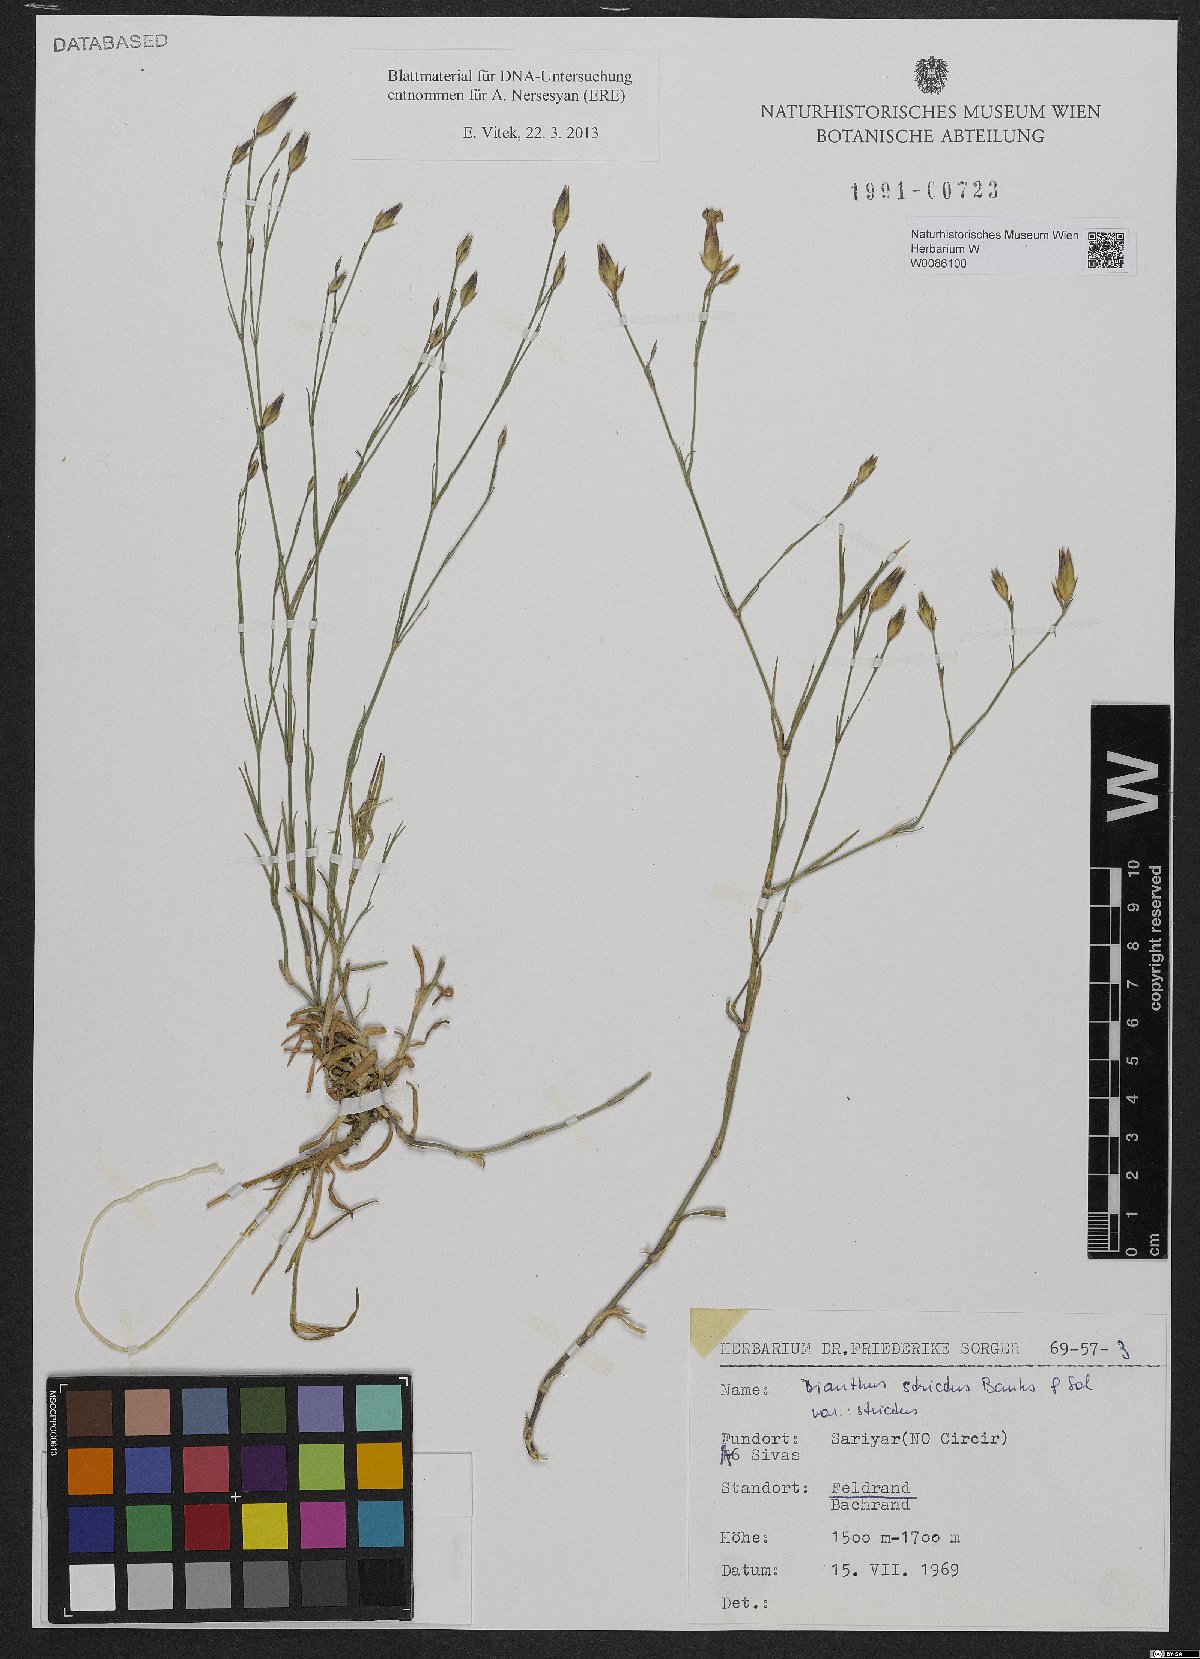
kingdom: Plantae
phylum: Tracheophyta
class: Magnoliopsida
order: Caryophyllales
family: Caryophyllaceae
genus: Dianthus
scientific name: Dianthus strictus
